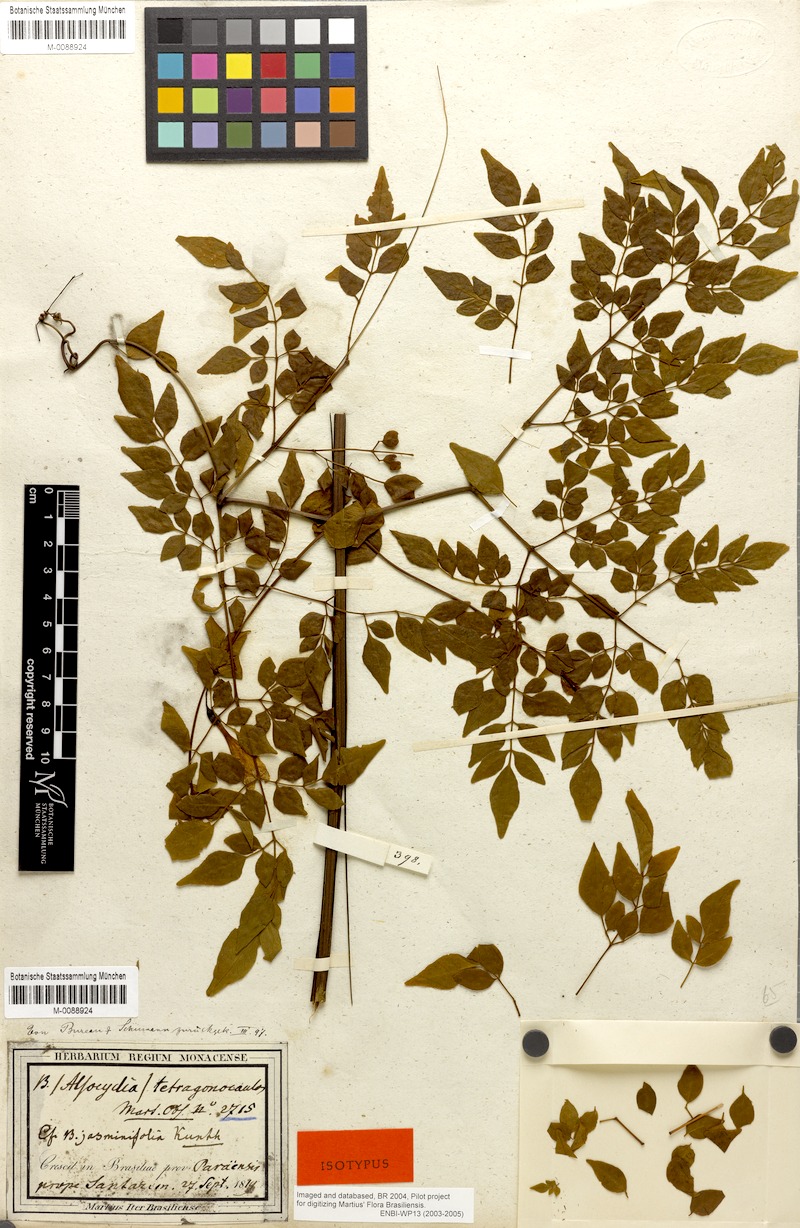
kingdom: Plantae
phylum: Tracheophyta
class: Magnoliopsida
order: Lamiales
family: Bignoniaceae
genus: Pleonotoma
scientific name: Pleonotoma jasminifolia
